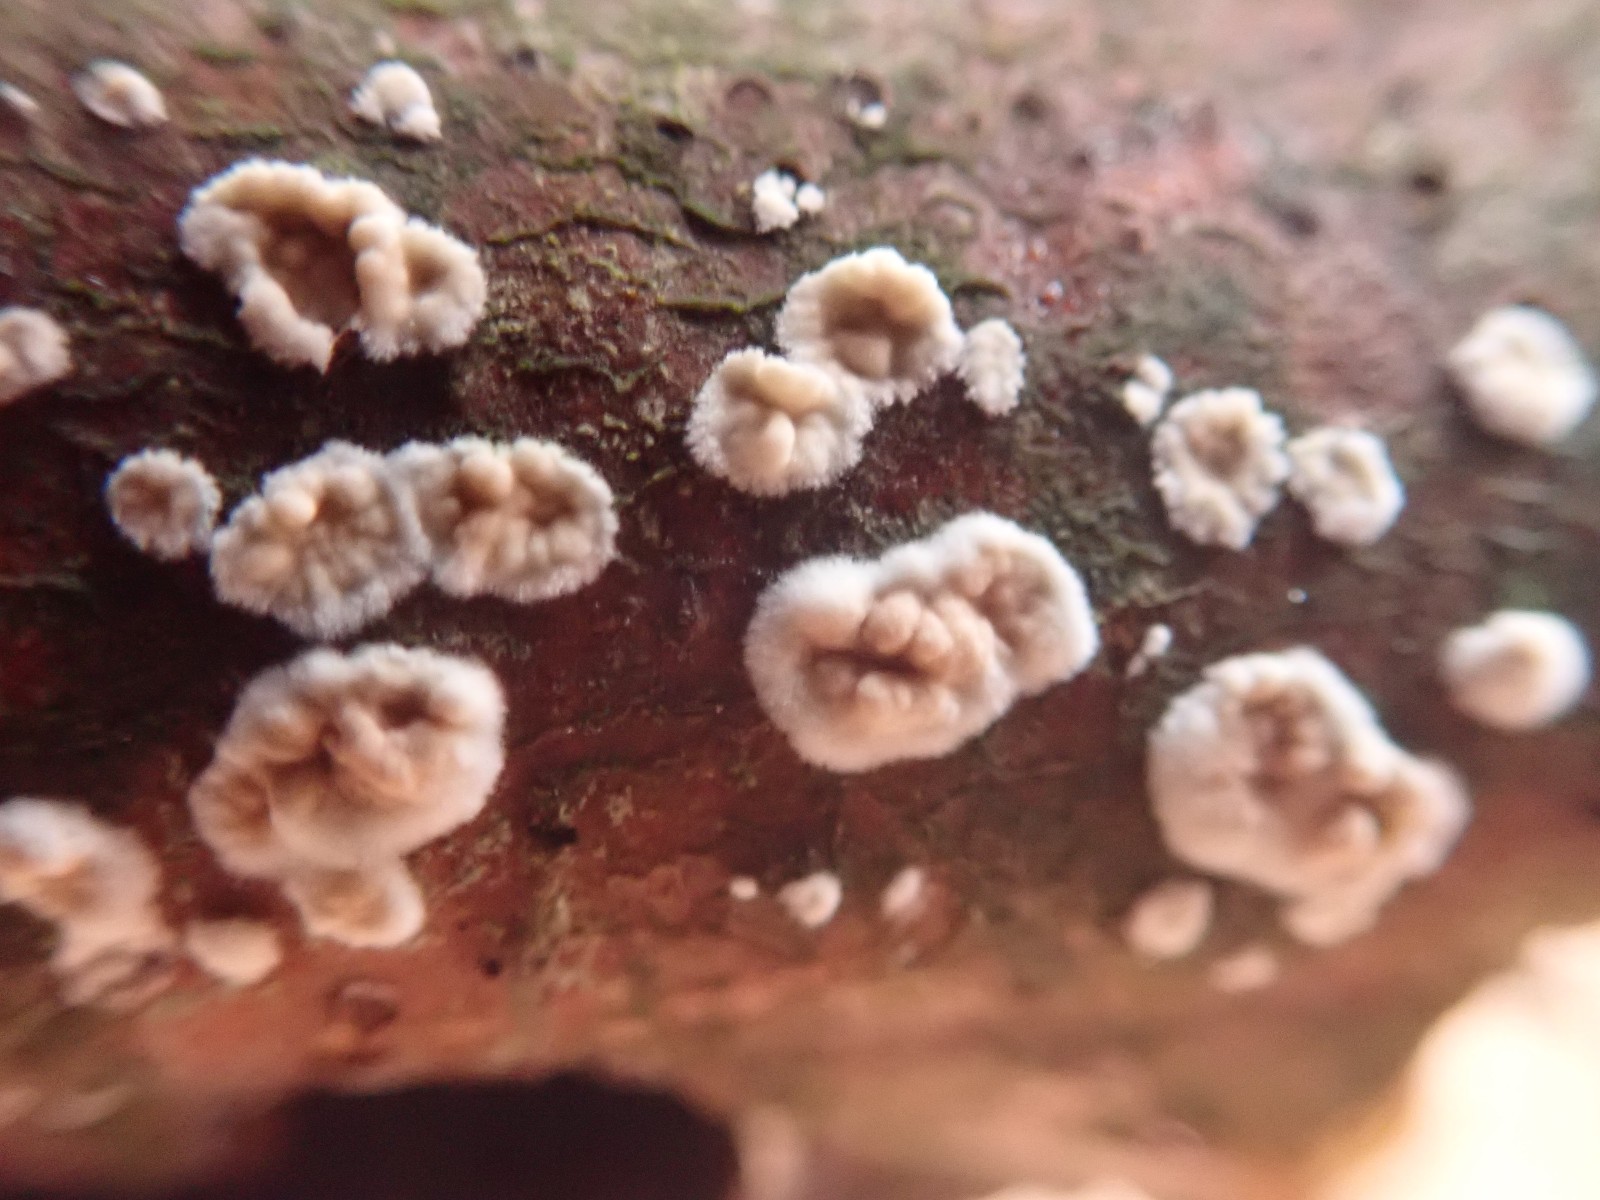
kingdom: Fungi
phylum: Basidiomycota
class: Agaricomycetes
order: Agaricales
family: Physalacriaceae
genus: Cylindrobasidium
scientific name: Cylindrobasidium evolvens
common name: sprækkehinde
